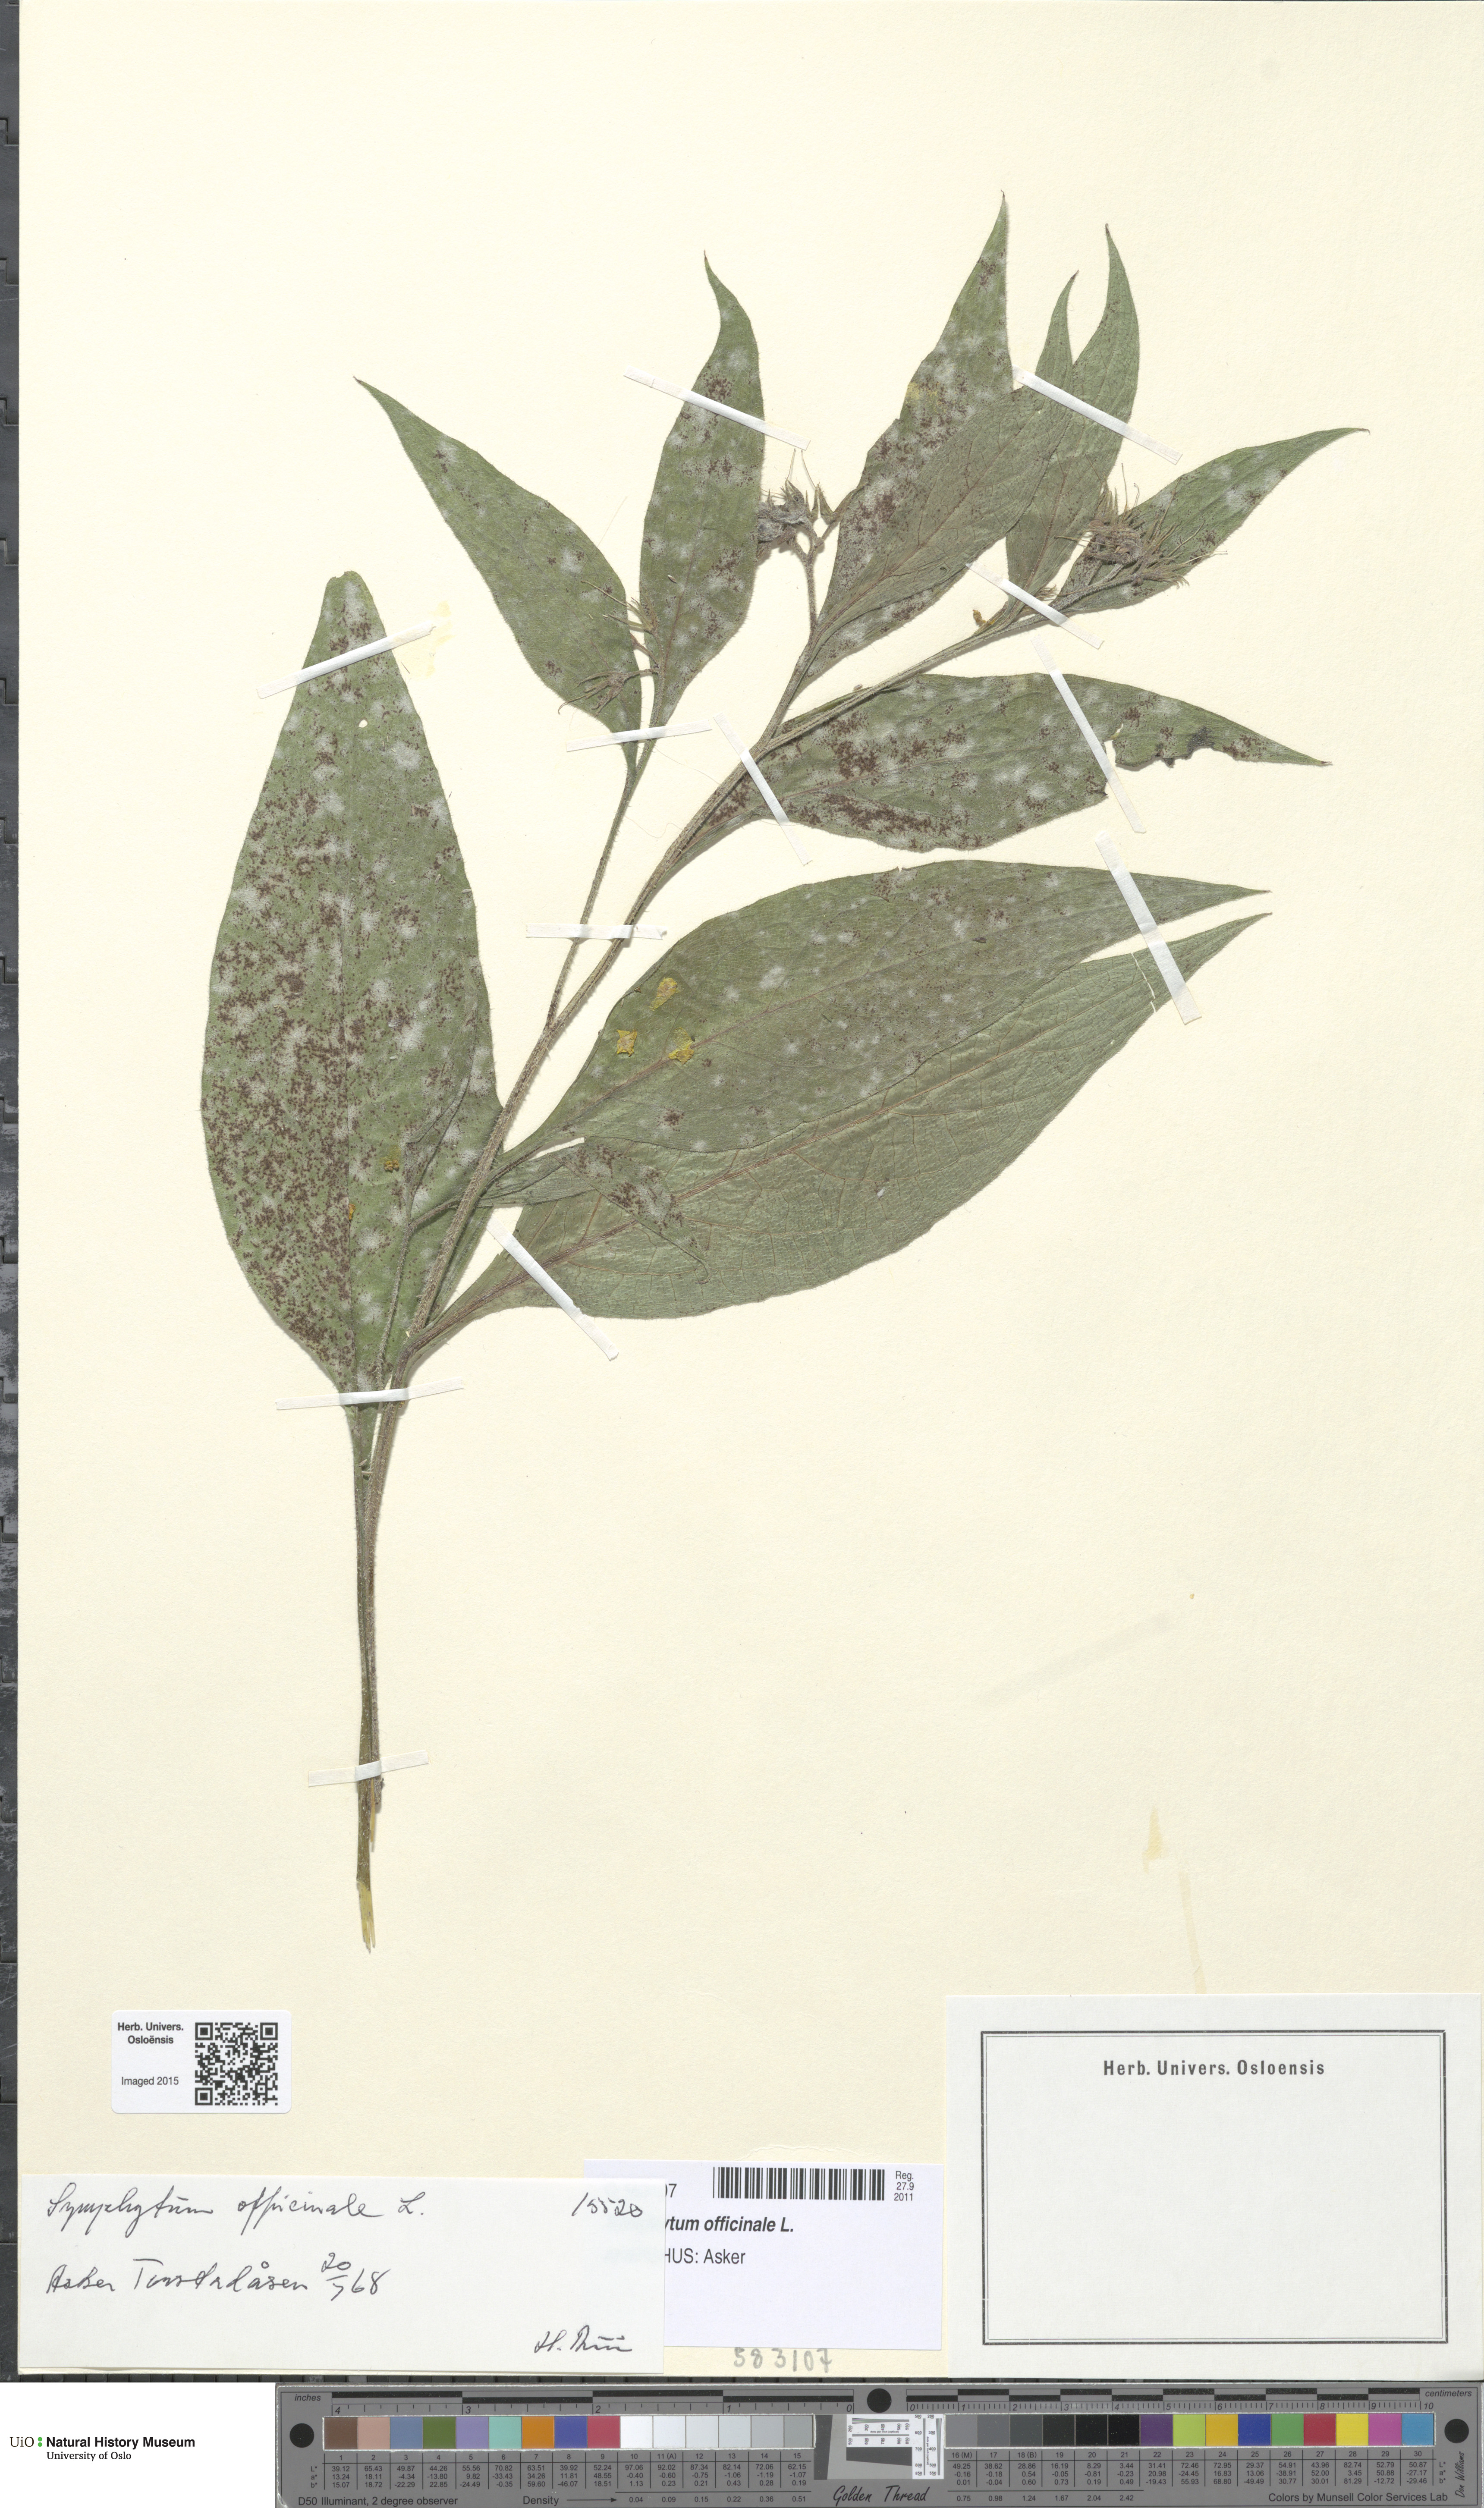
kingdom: Plantae
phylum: Tracheophyta
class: Magnoliopsida
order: Boraginales
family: Boraginaceae
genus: Symphytum
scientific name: Symphytum uplandicum
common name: Russian comfrey
